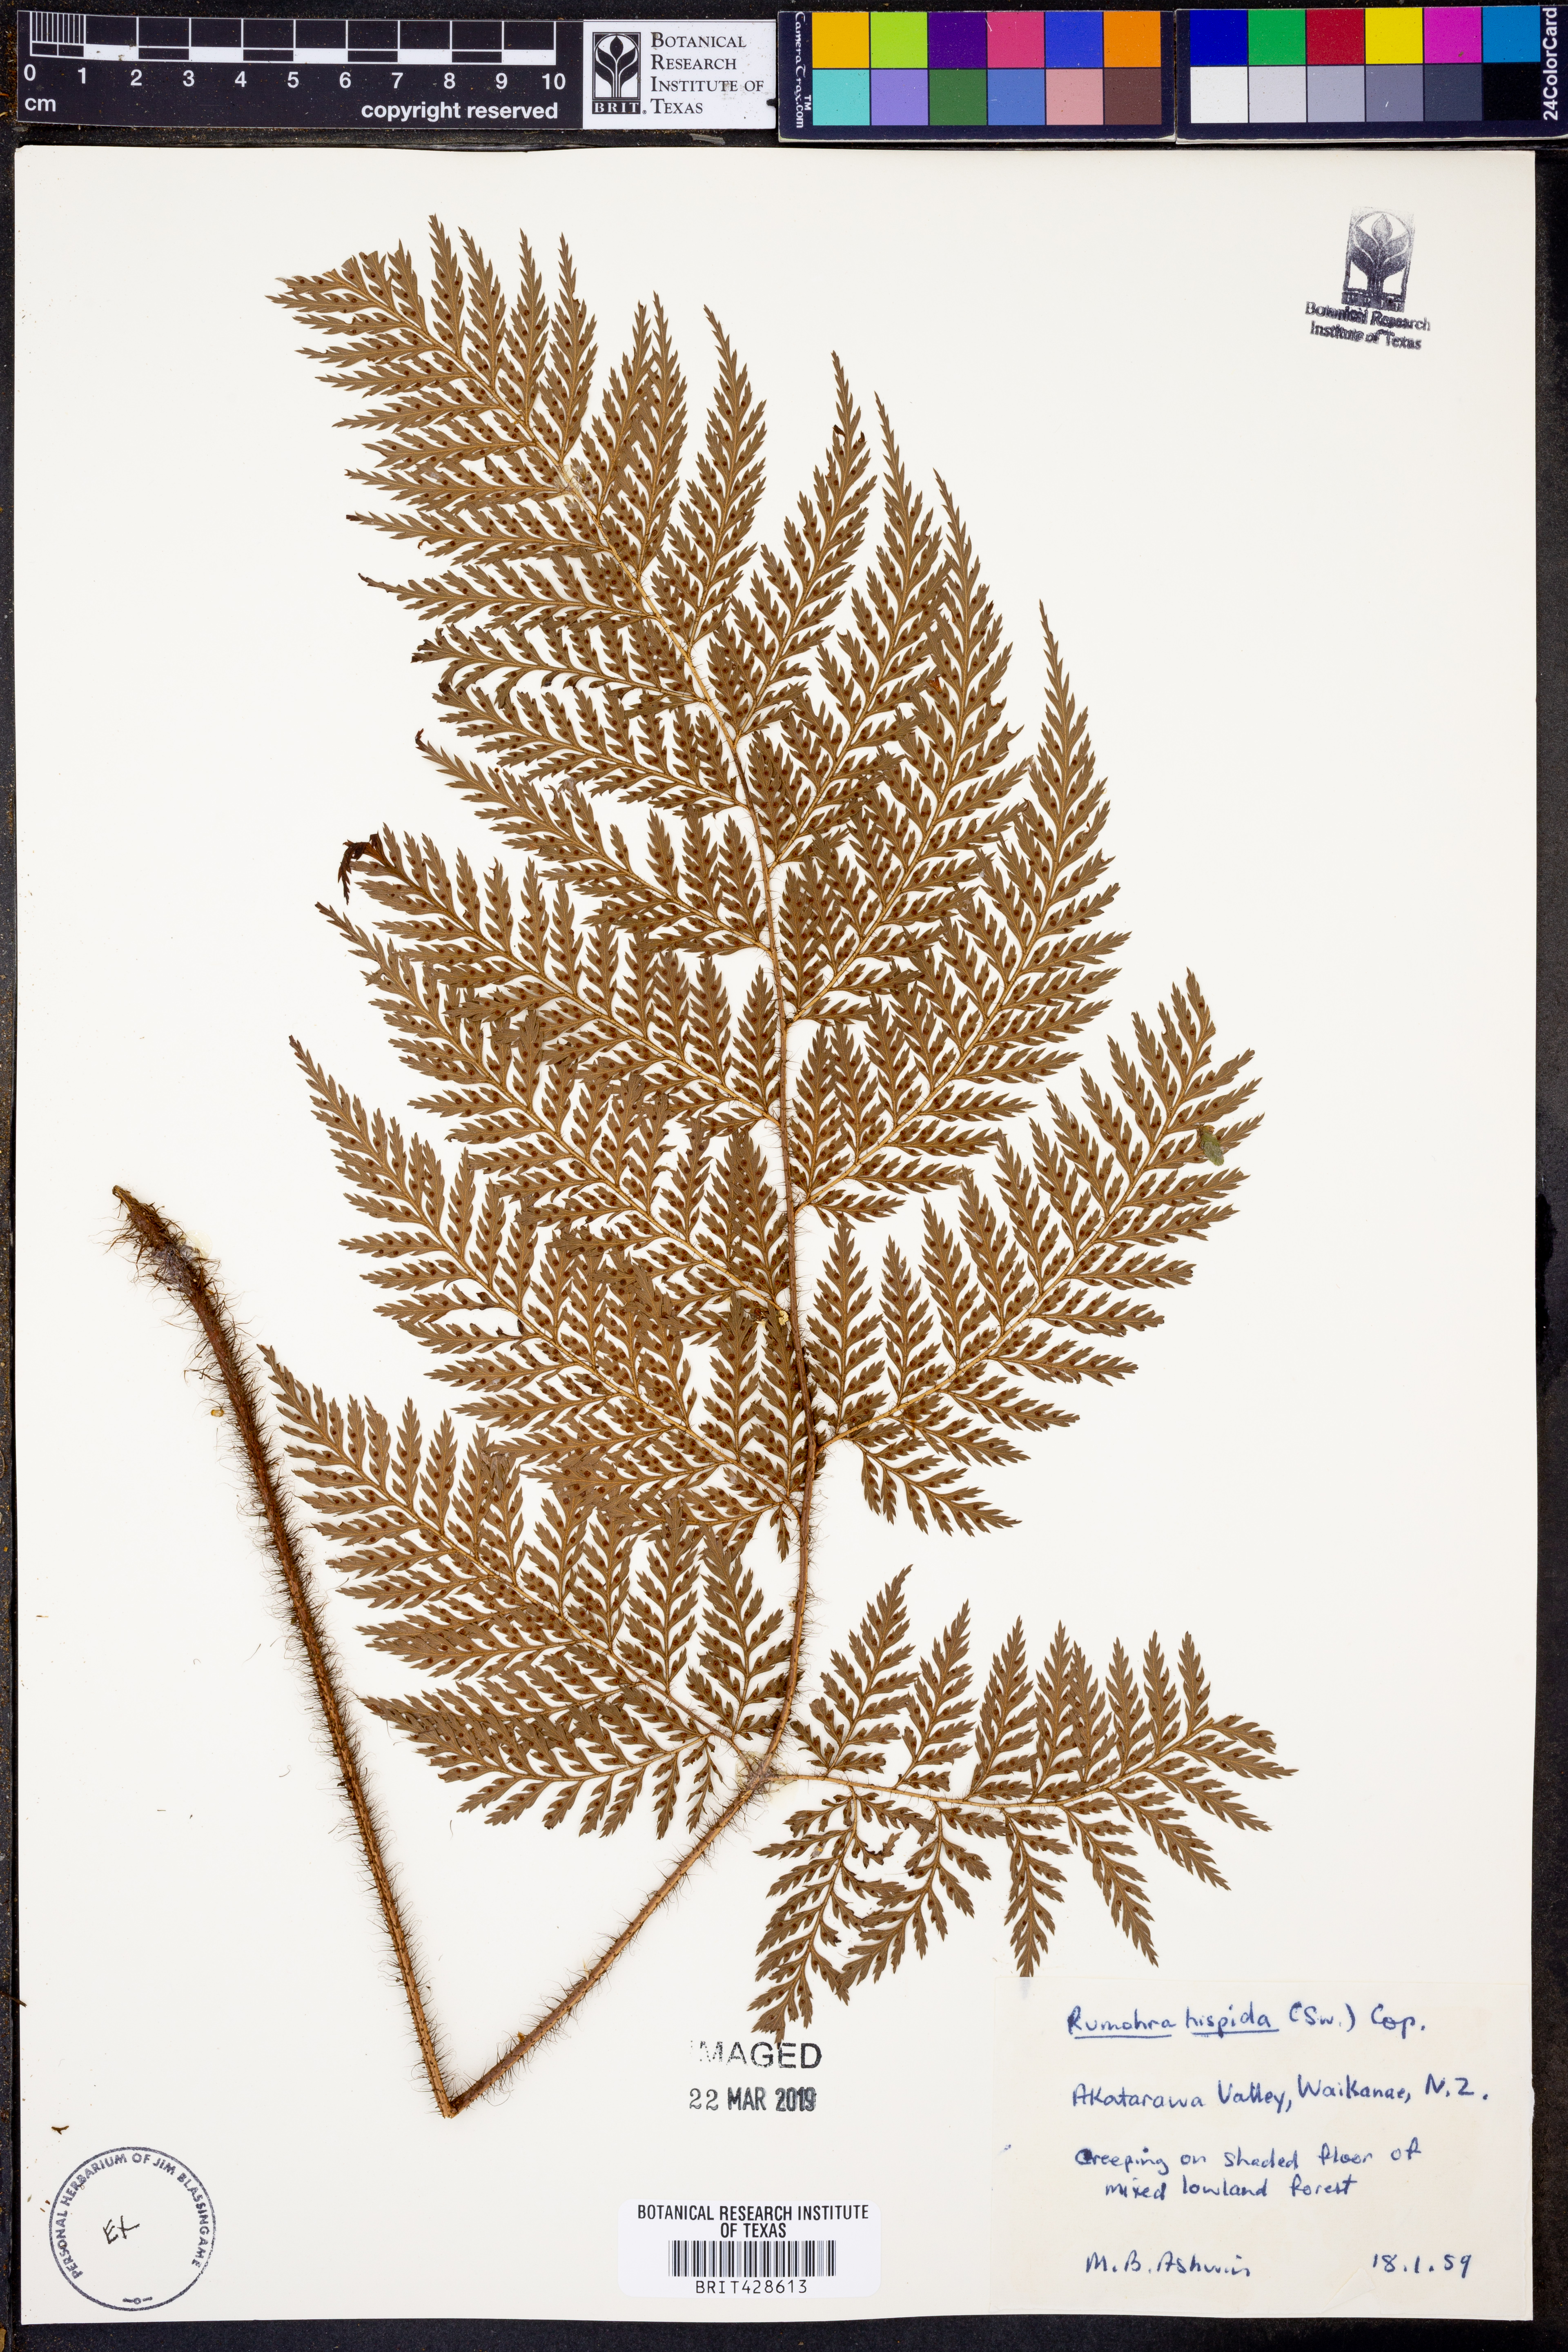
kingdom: Plantae
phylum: Tracheophyta
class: Polypodiopsida
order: Polypodiales
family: Dryopteridaceae
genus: Lastreopsis
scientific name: Lastreopsis hispida
